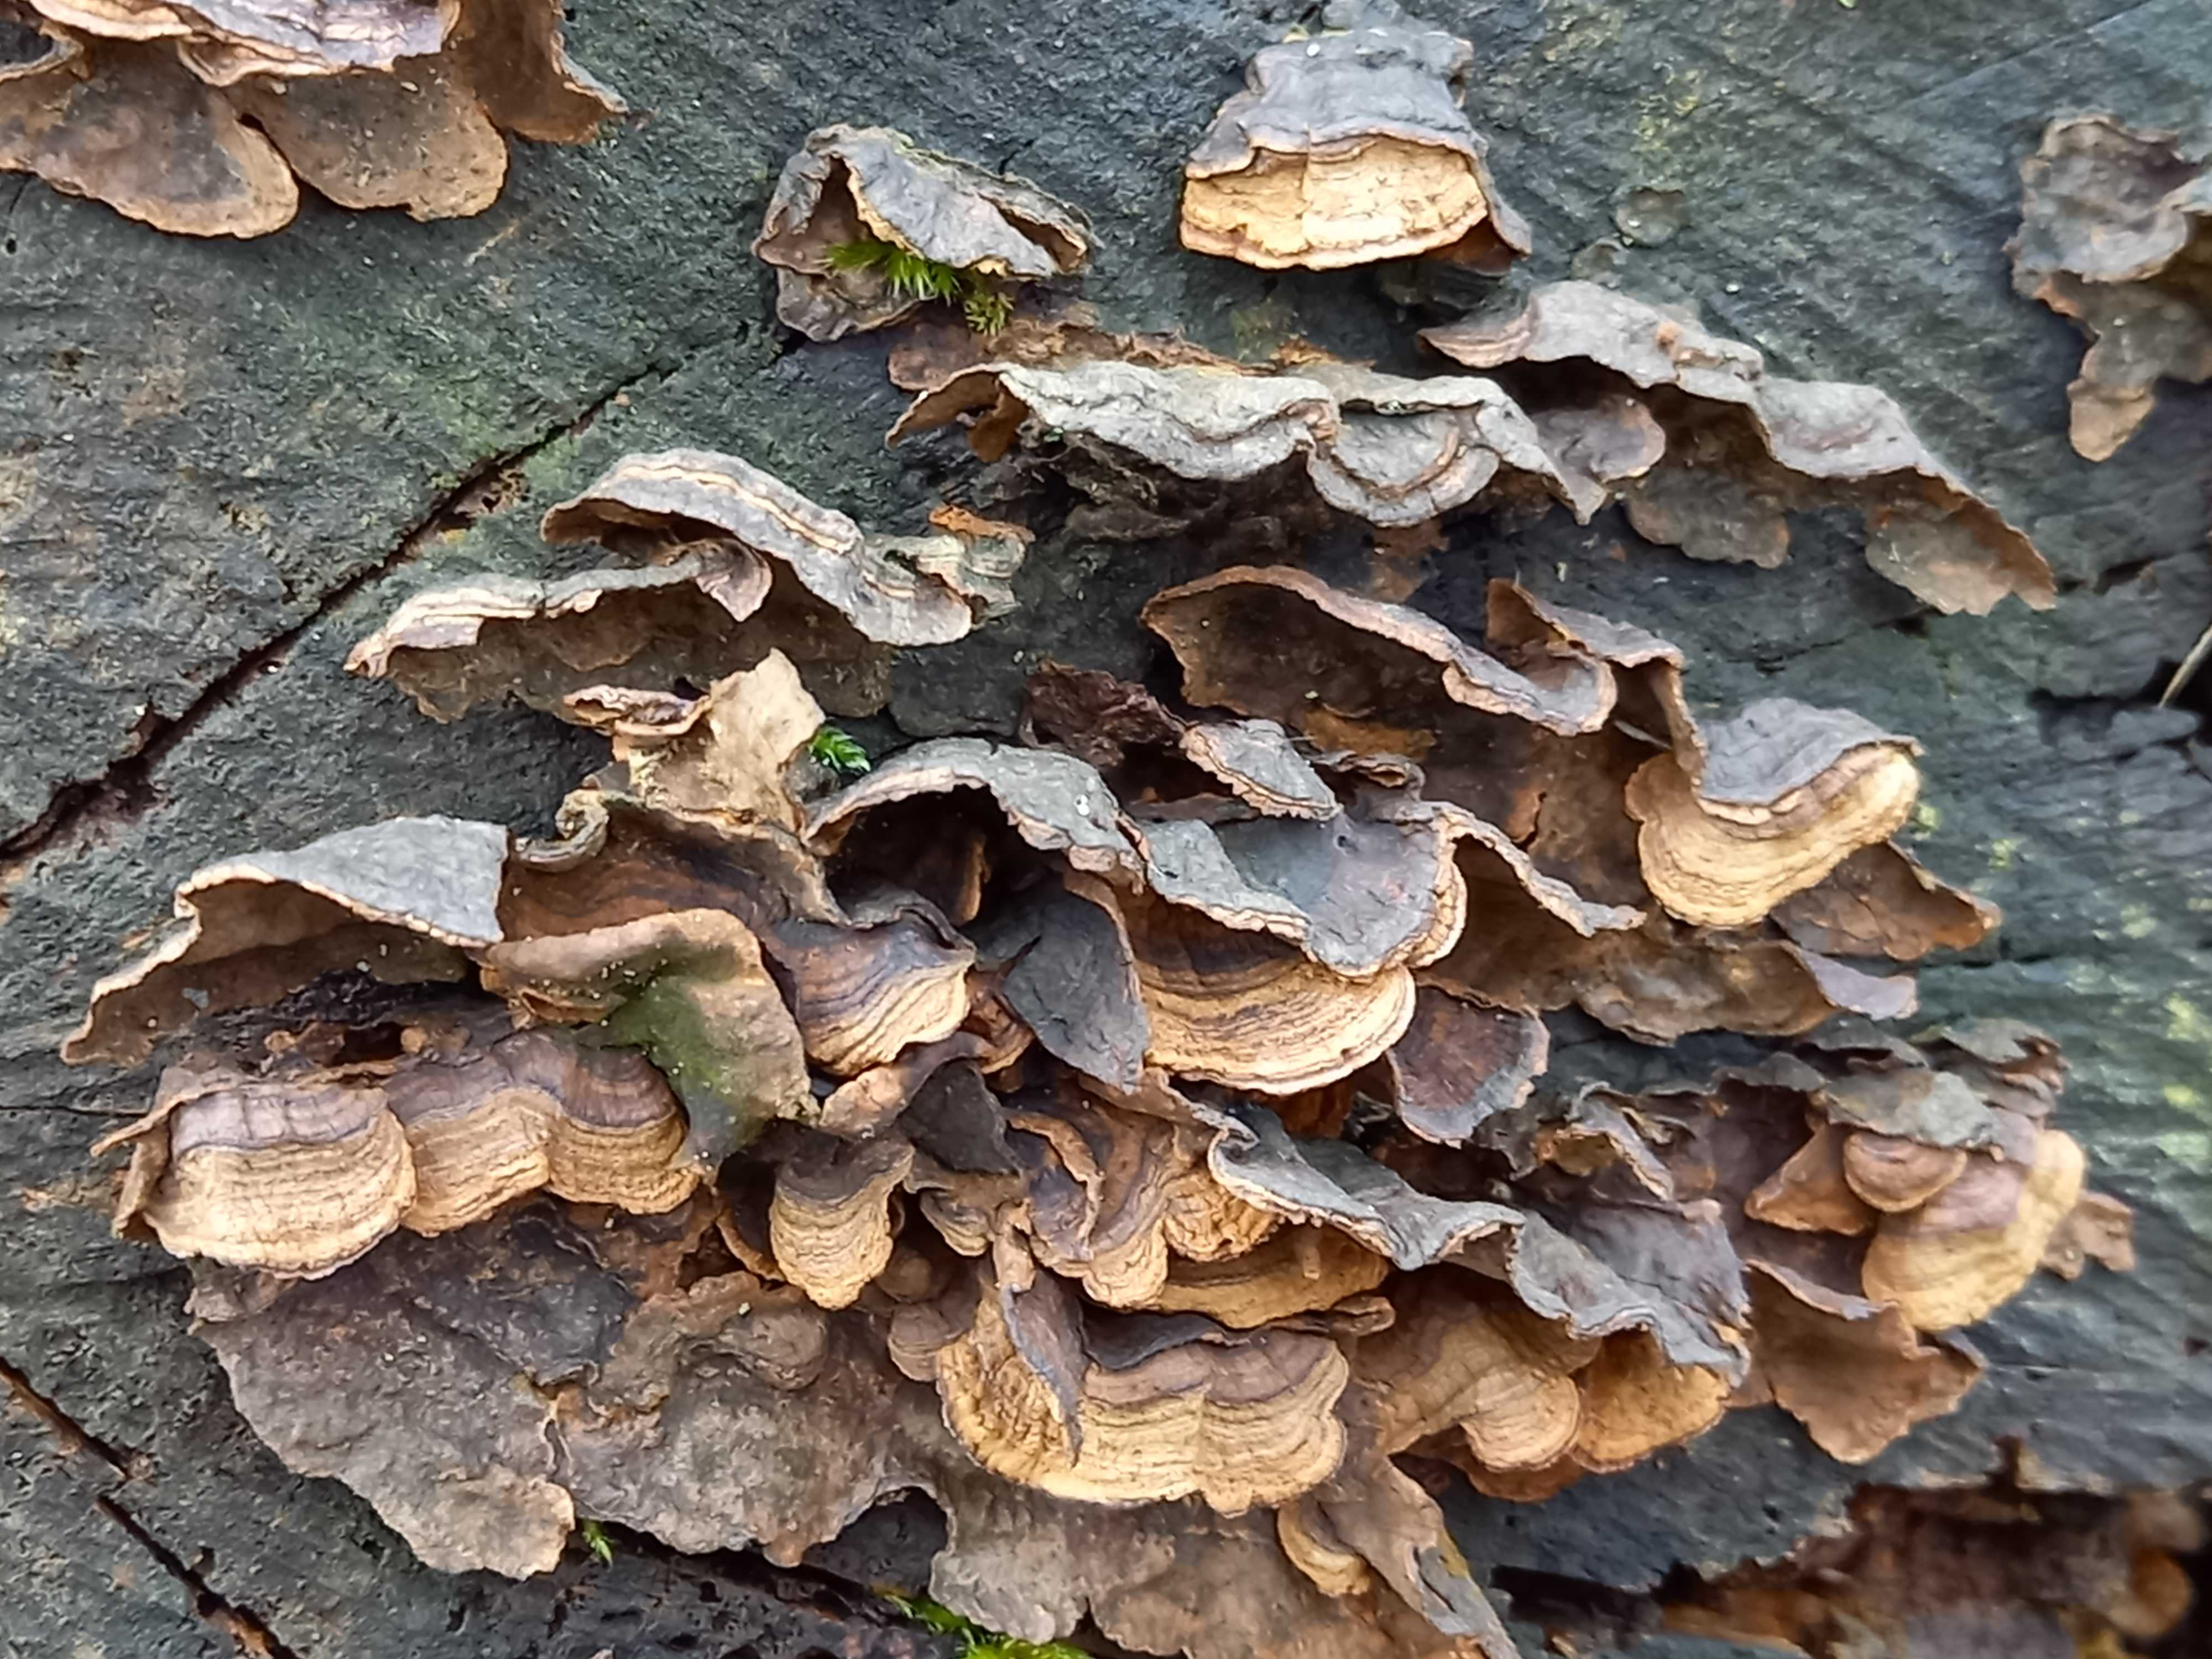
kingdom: Fungi
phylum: Basidiomycota
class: Agaricomycetes
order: Hymenochaetales
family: Hymenochaetaceae
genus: Hymenochaete
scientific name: Hymenochaete rubiginosa
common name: stiv ruslædersvamp
